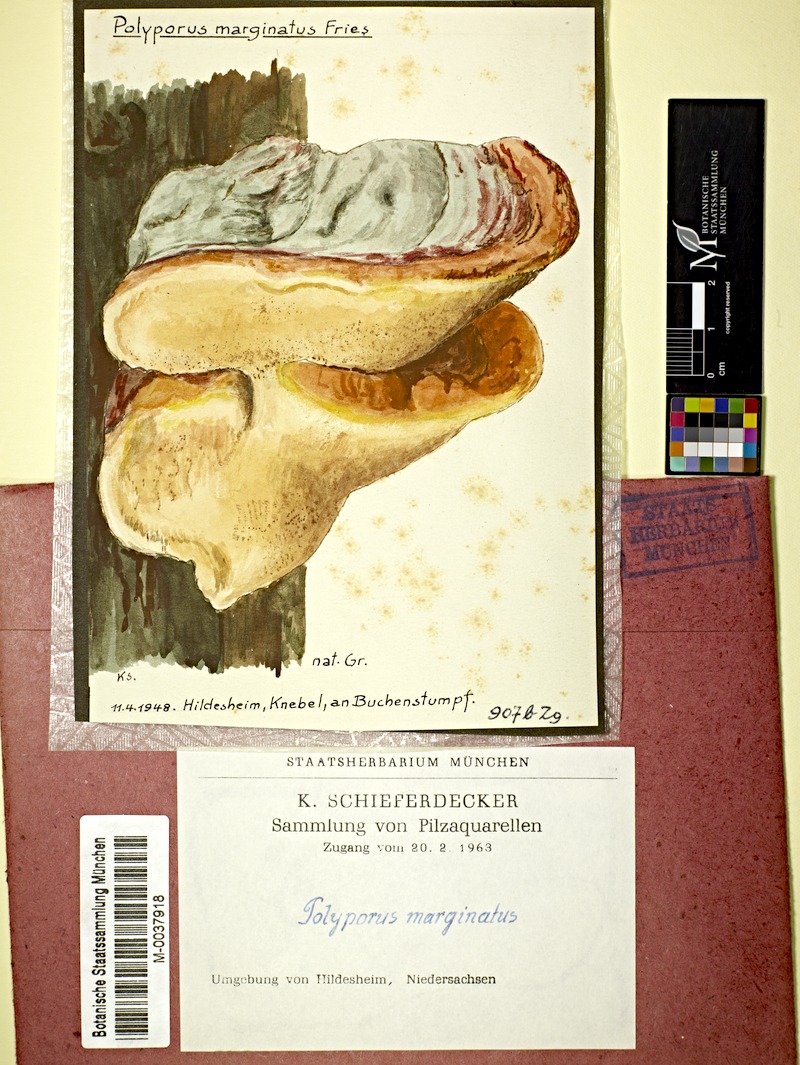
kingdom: Plantae
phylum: Tracheophyta
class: Magnoliopsida
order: Fagales
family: Fagaceae
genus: Fagus
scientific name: Fagus
